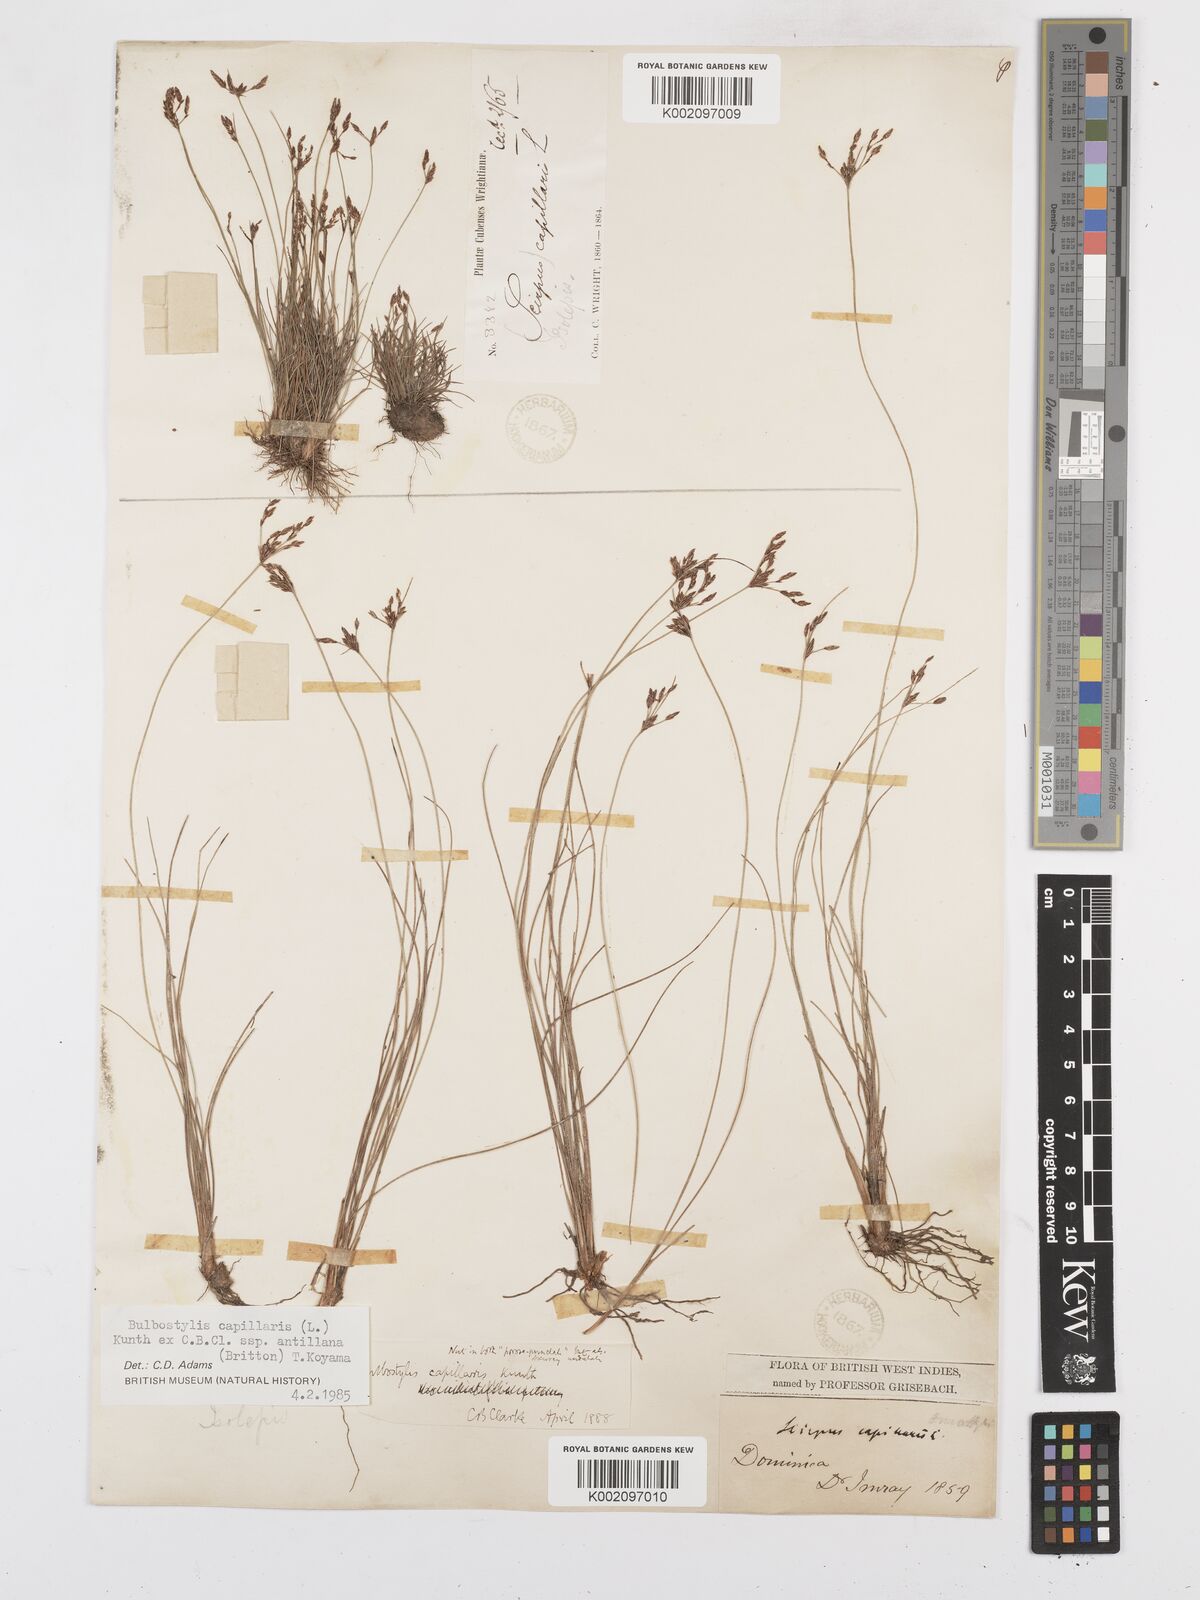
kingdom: Plantae
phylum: Tracheophyta
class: Liliopsida
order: Poales
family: Cyperaceae
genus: Bulbostylis
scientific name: Bulbostylis capillaris
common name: Densetuft hairsedge
